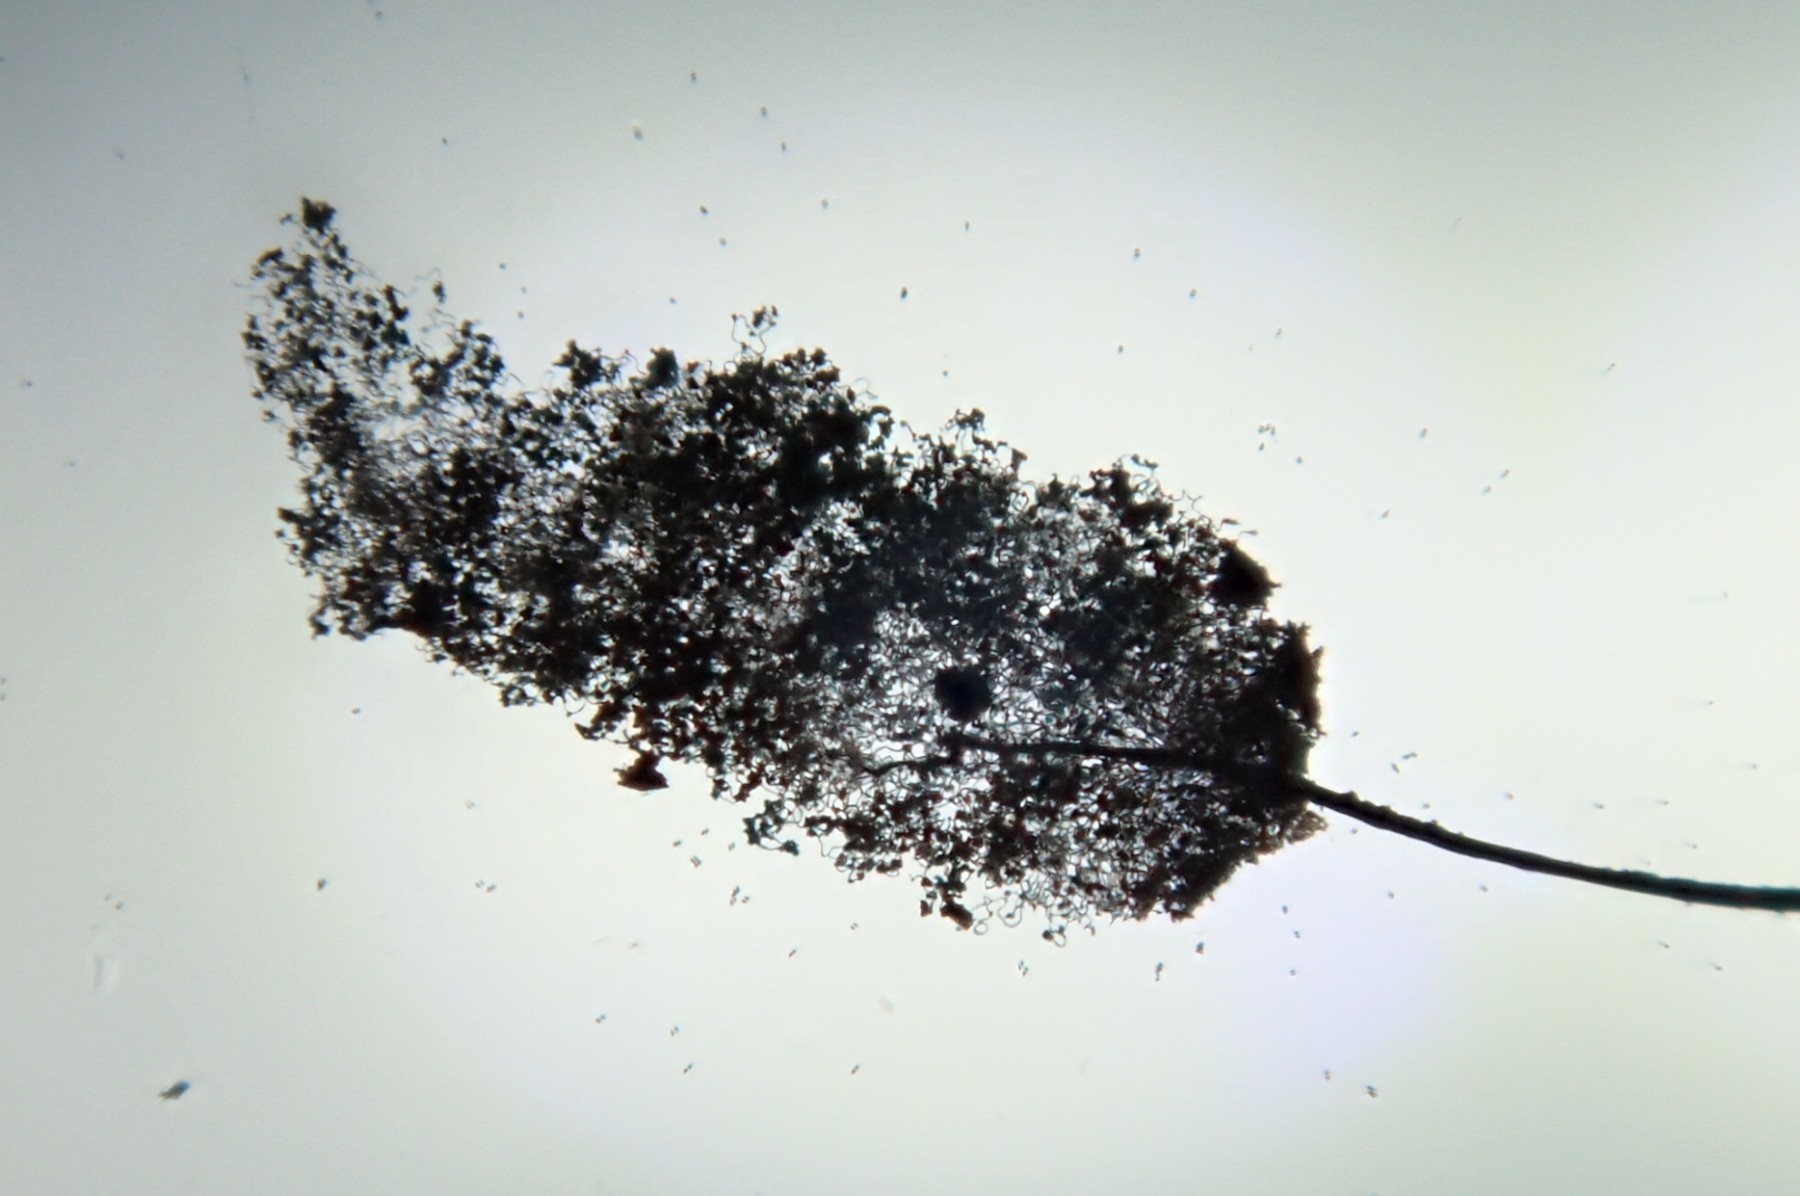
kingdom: Protozoa
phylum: Mycetozoa
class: Myxomycetes
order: Stemonitidales
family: Stemonitidaceae
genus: Comatricha
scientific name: Comatricha nigra
